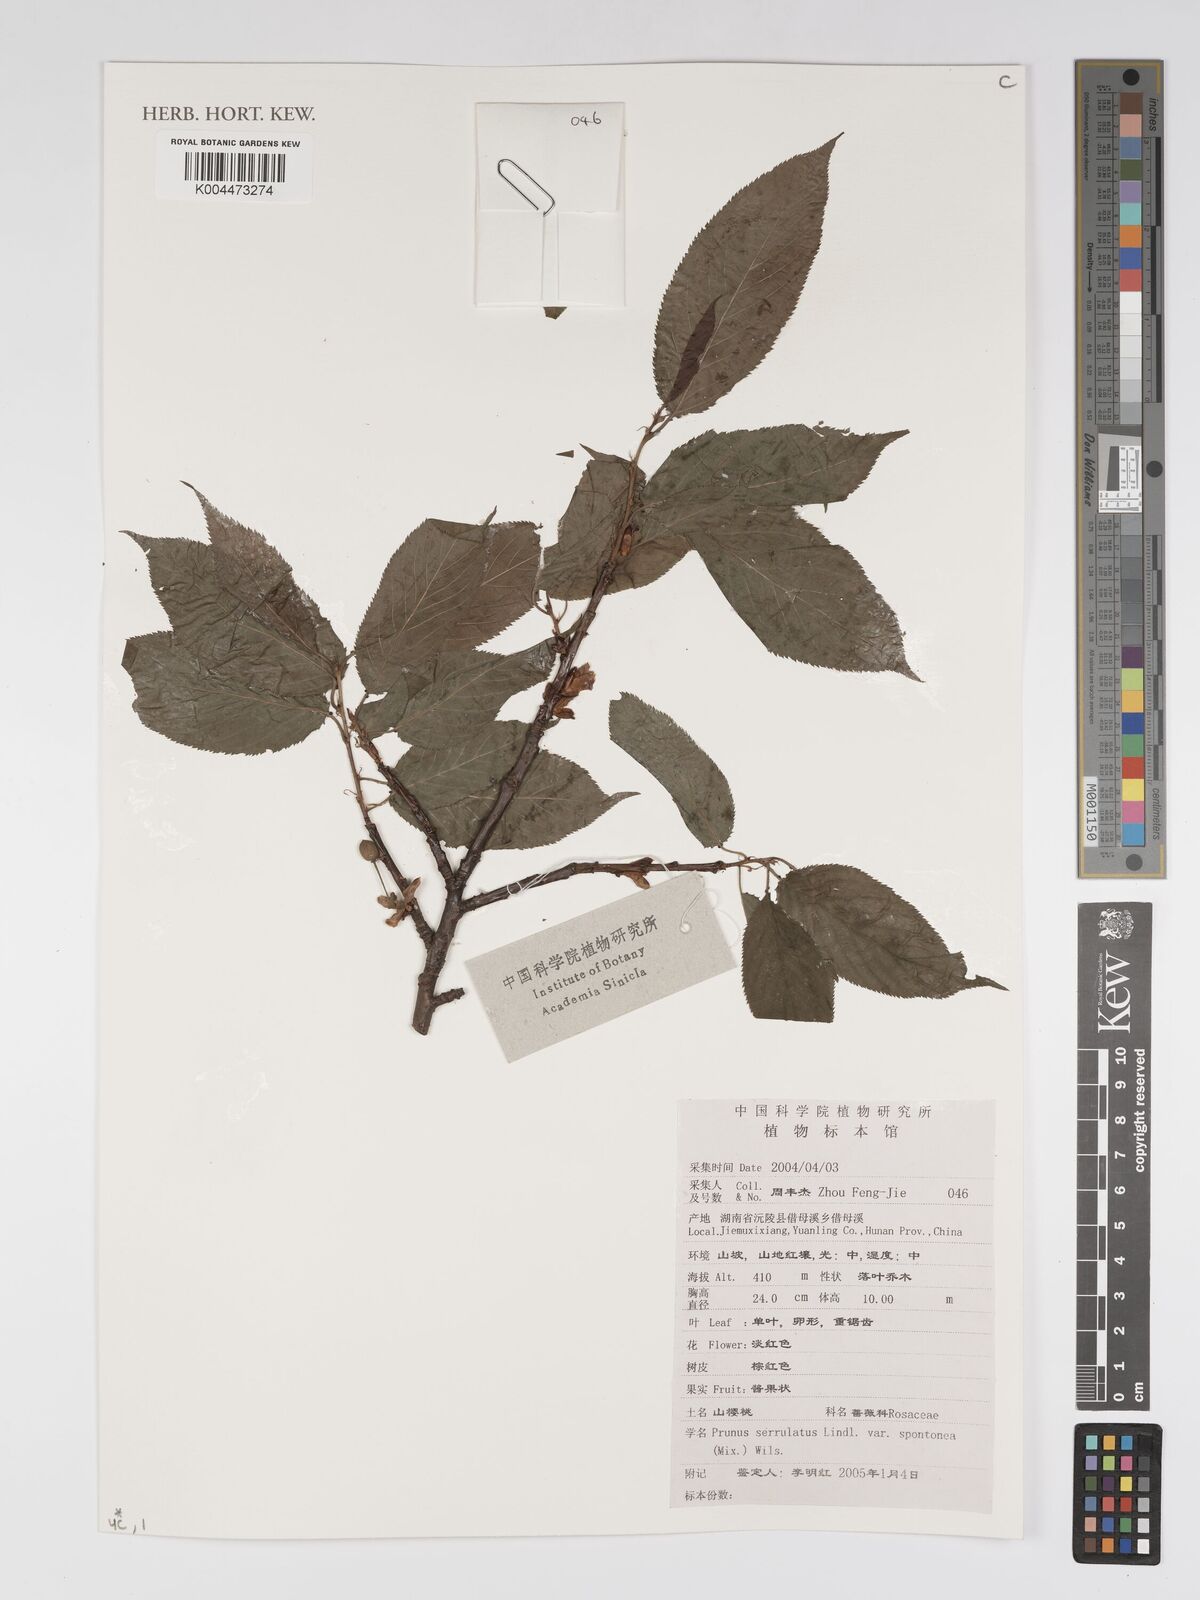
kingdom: Plantae
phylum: Tracheophyta
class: Magnoliopsida
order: Rosales
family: Rosaceae
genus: Prunus
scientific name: Prunus serrulata
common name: Japanese cherry
